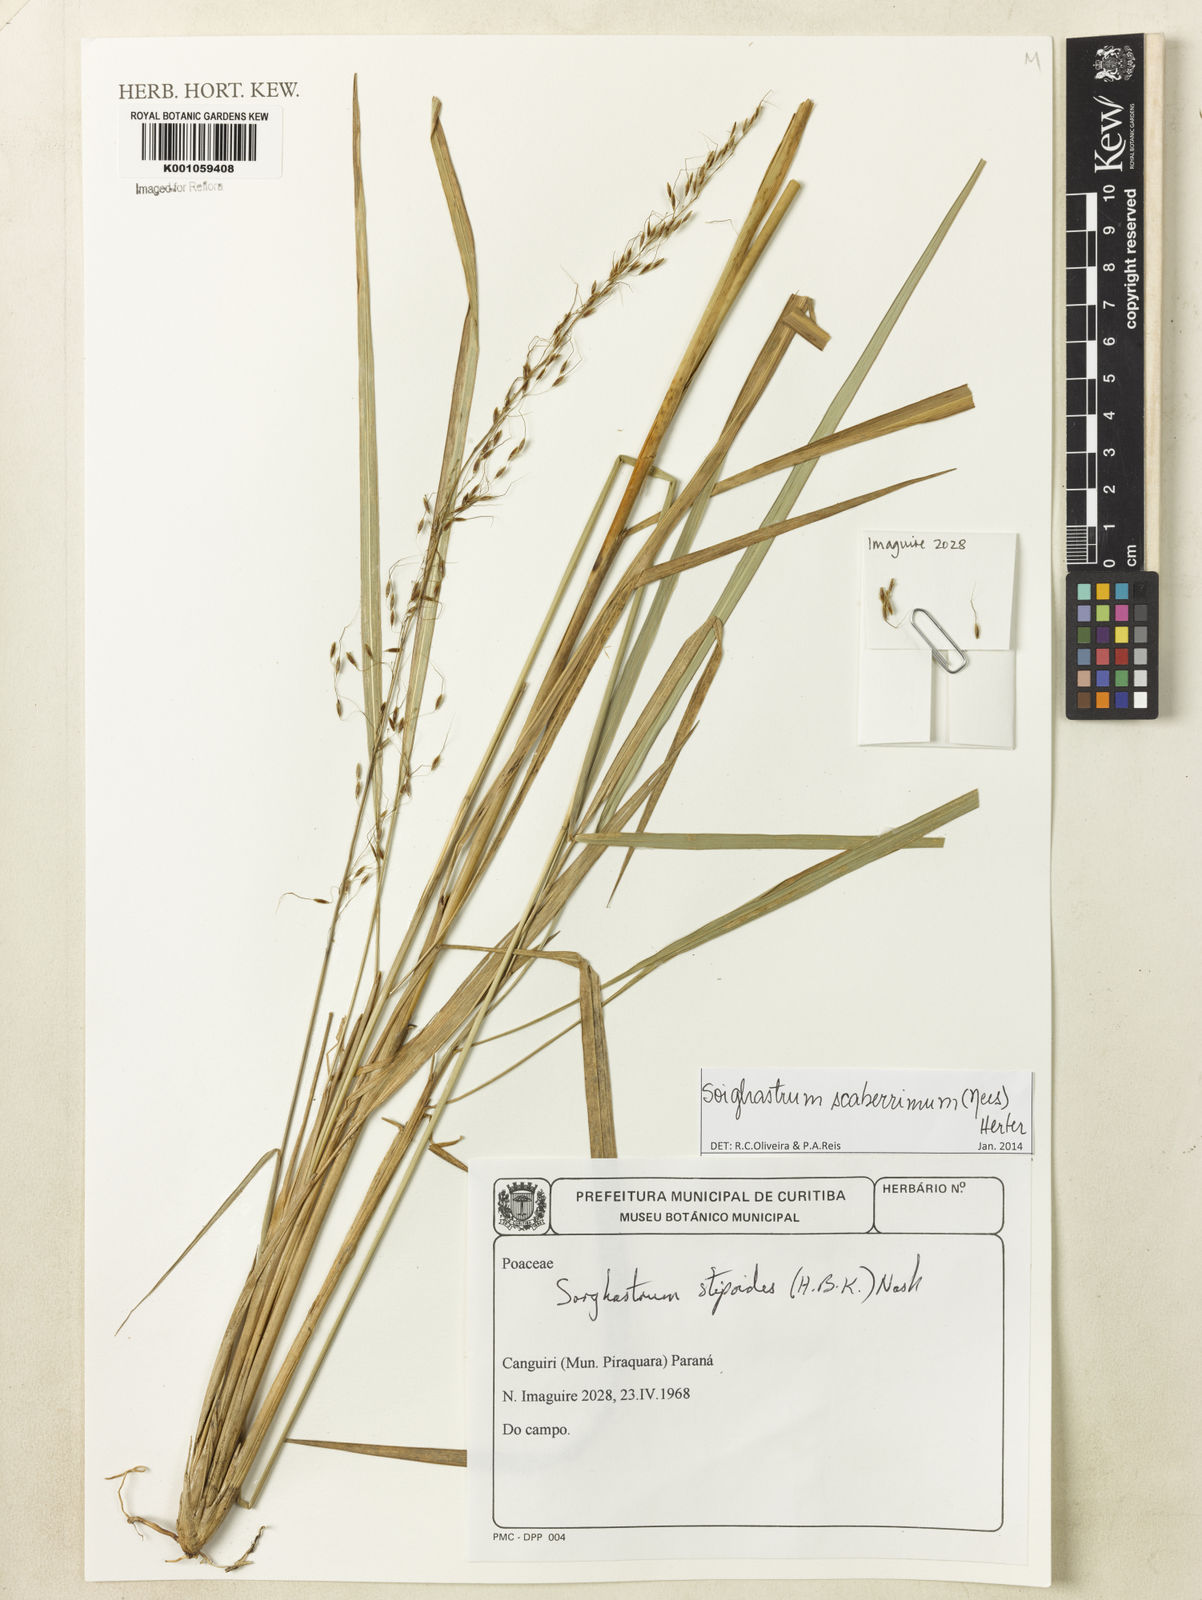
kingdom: Plantae
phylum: Tracheophyta
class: Liliopsida
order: Poales
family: Poaceae
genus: Sorghastrum
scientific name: Sorghastrum scaberrimum
